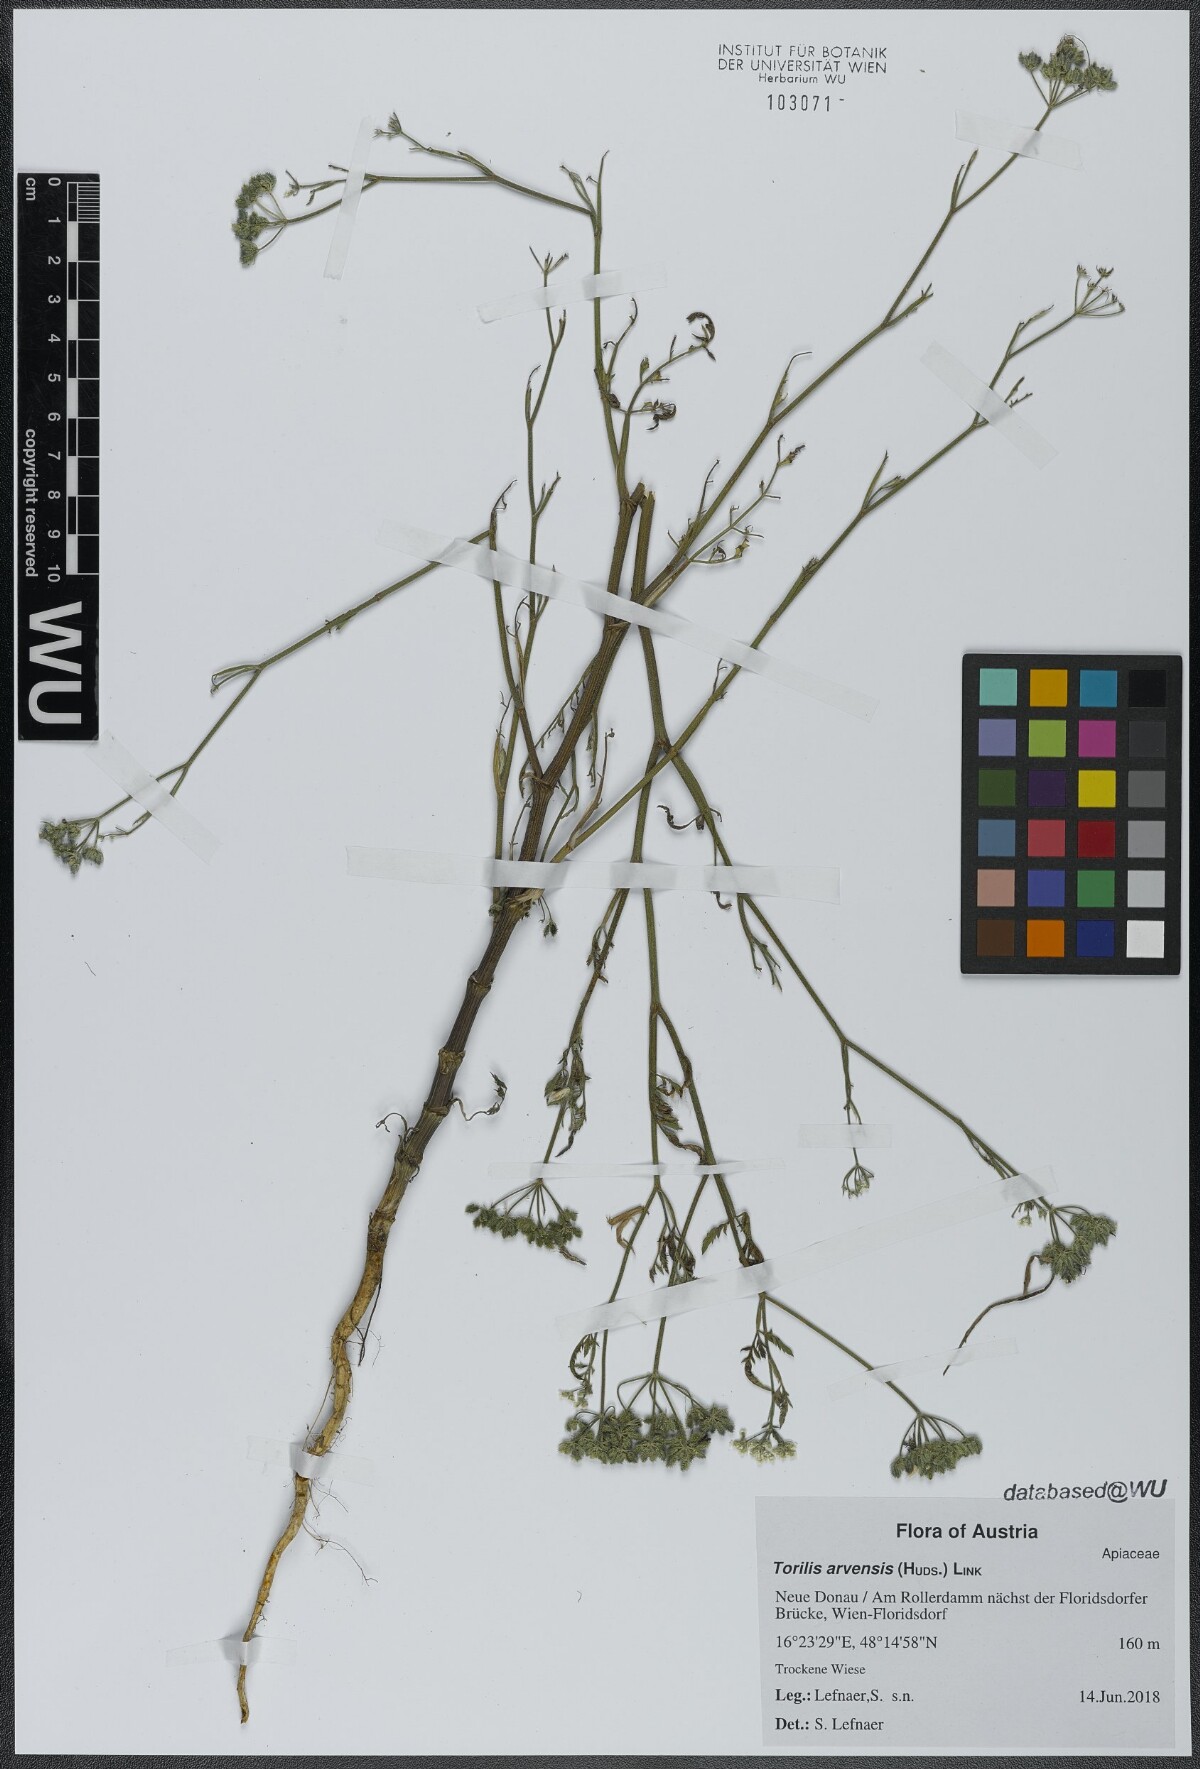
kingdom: Plantae
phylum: Tracheophyta
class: Magnoliopsida
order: Apiales
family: Apiaceae
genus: Torilis
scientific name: Torilis arvensis
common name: Spreading hedge-parsley
